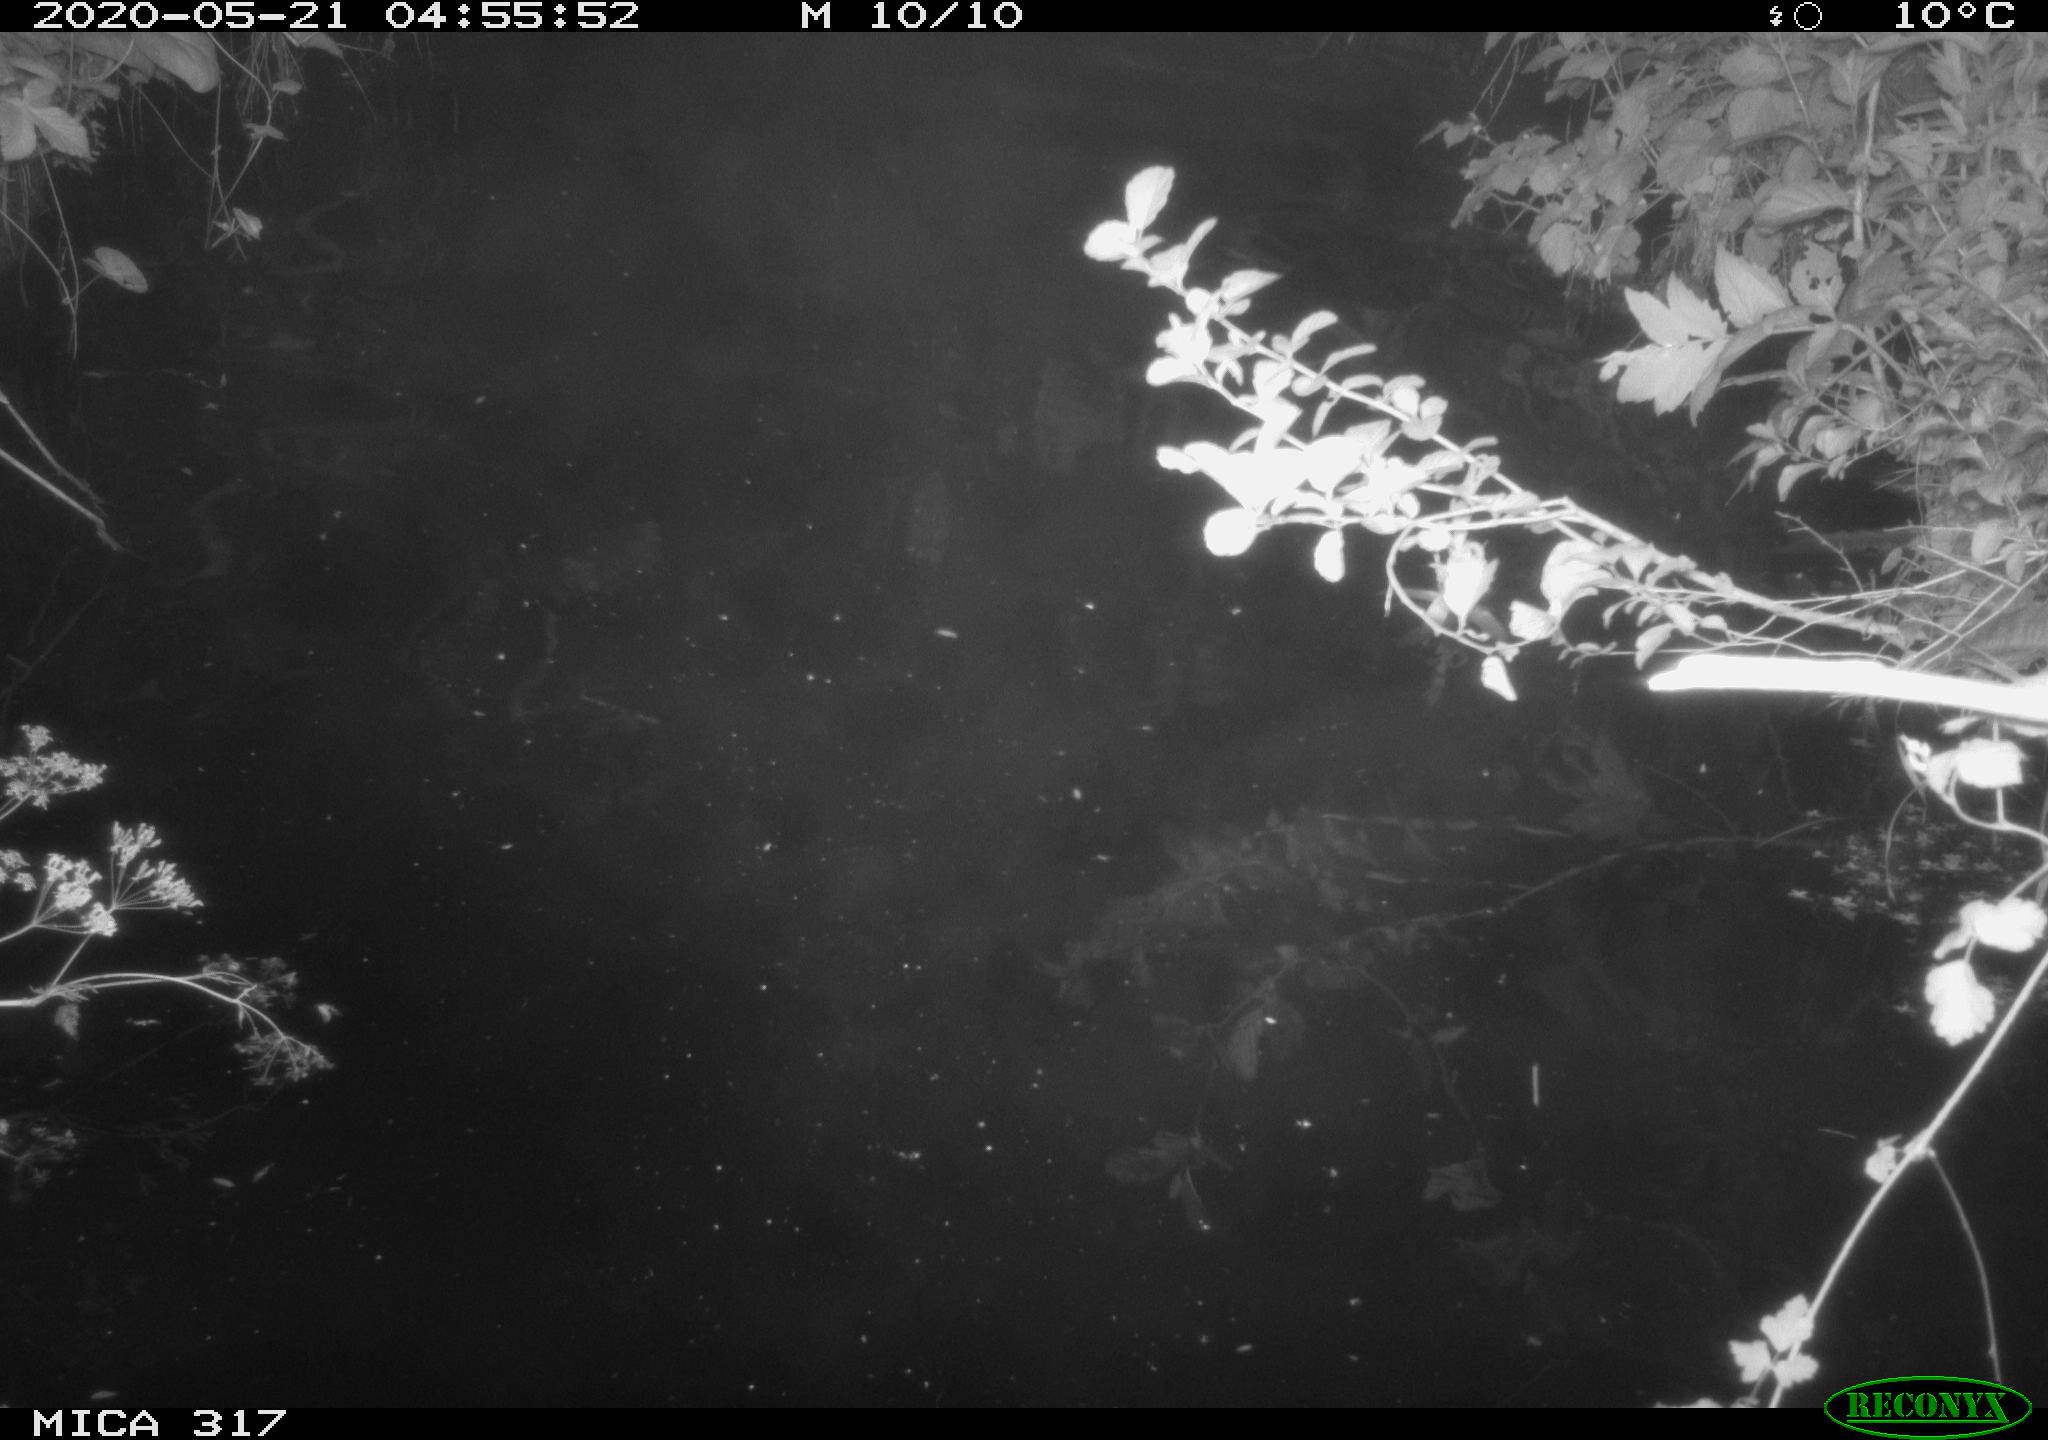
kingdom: Animalia
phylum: Chordata
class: Aves
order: Anseriformes
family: Anatidae
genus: Anas
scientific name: Anas platyrhynchos
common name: Mallard
